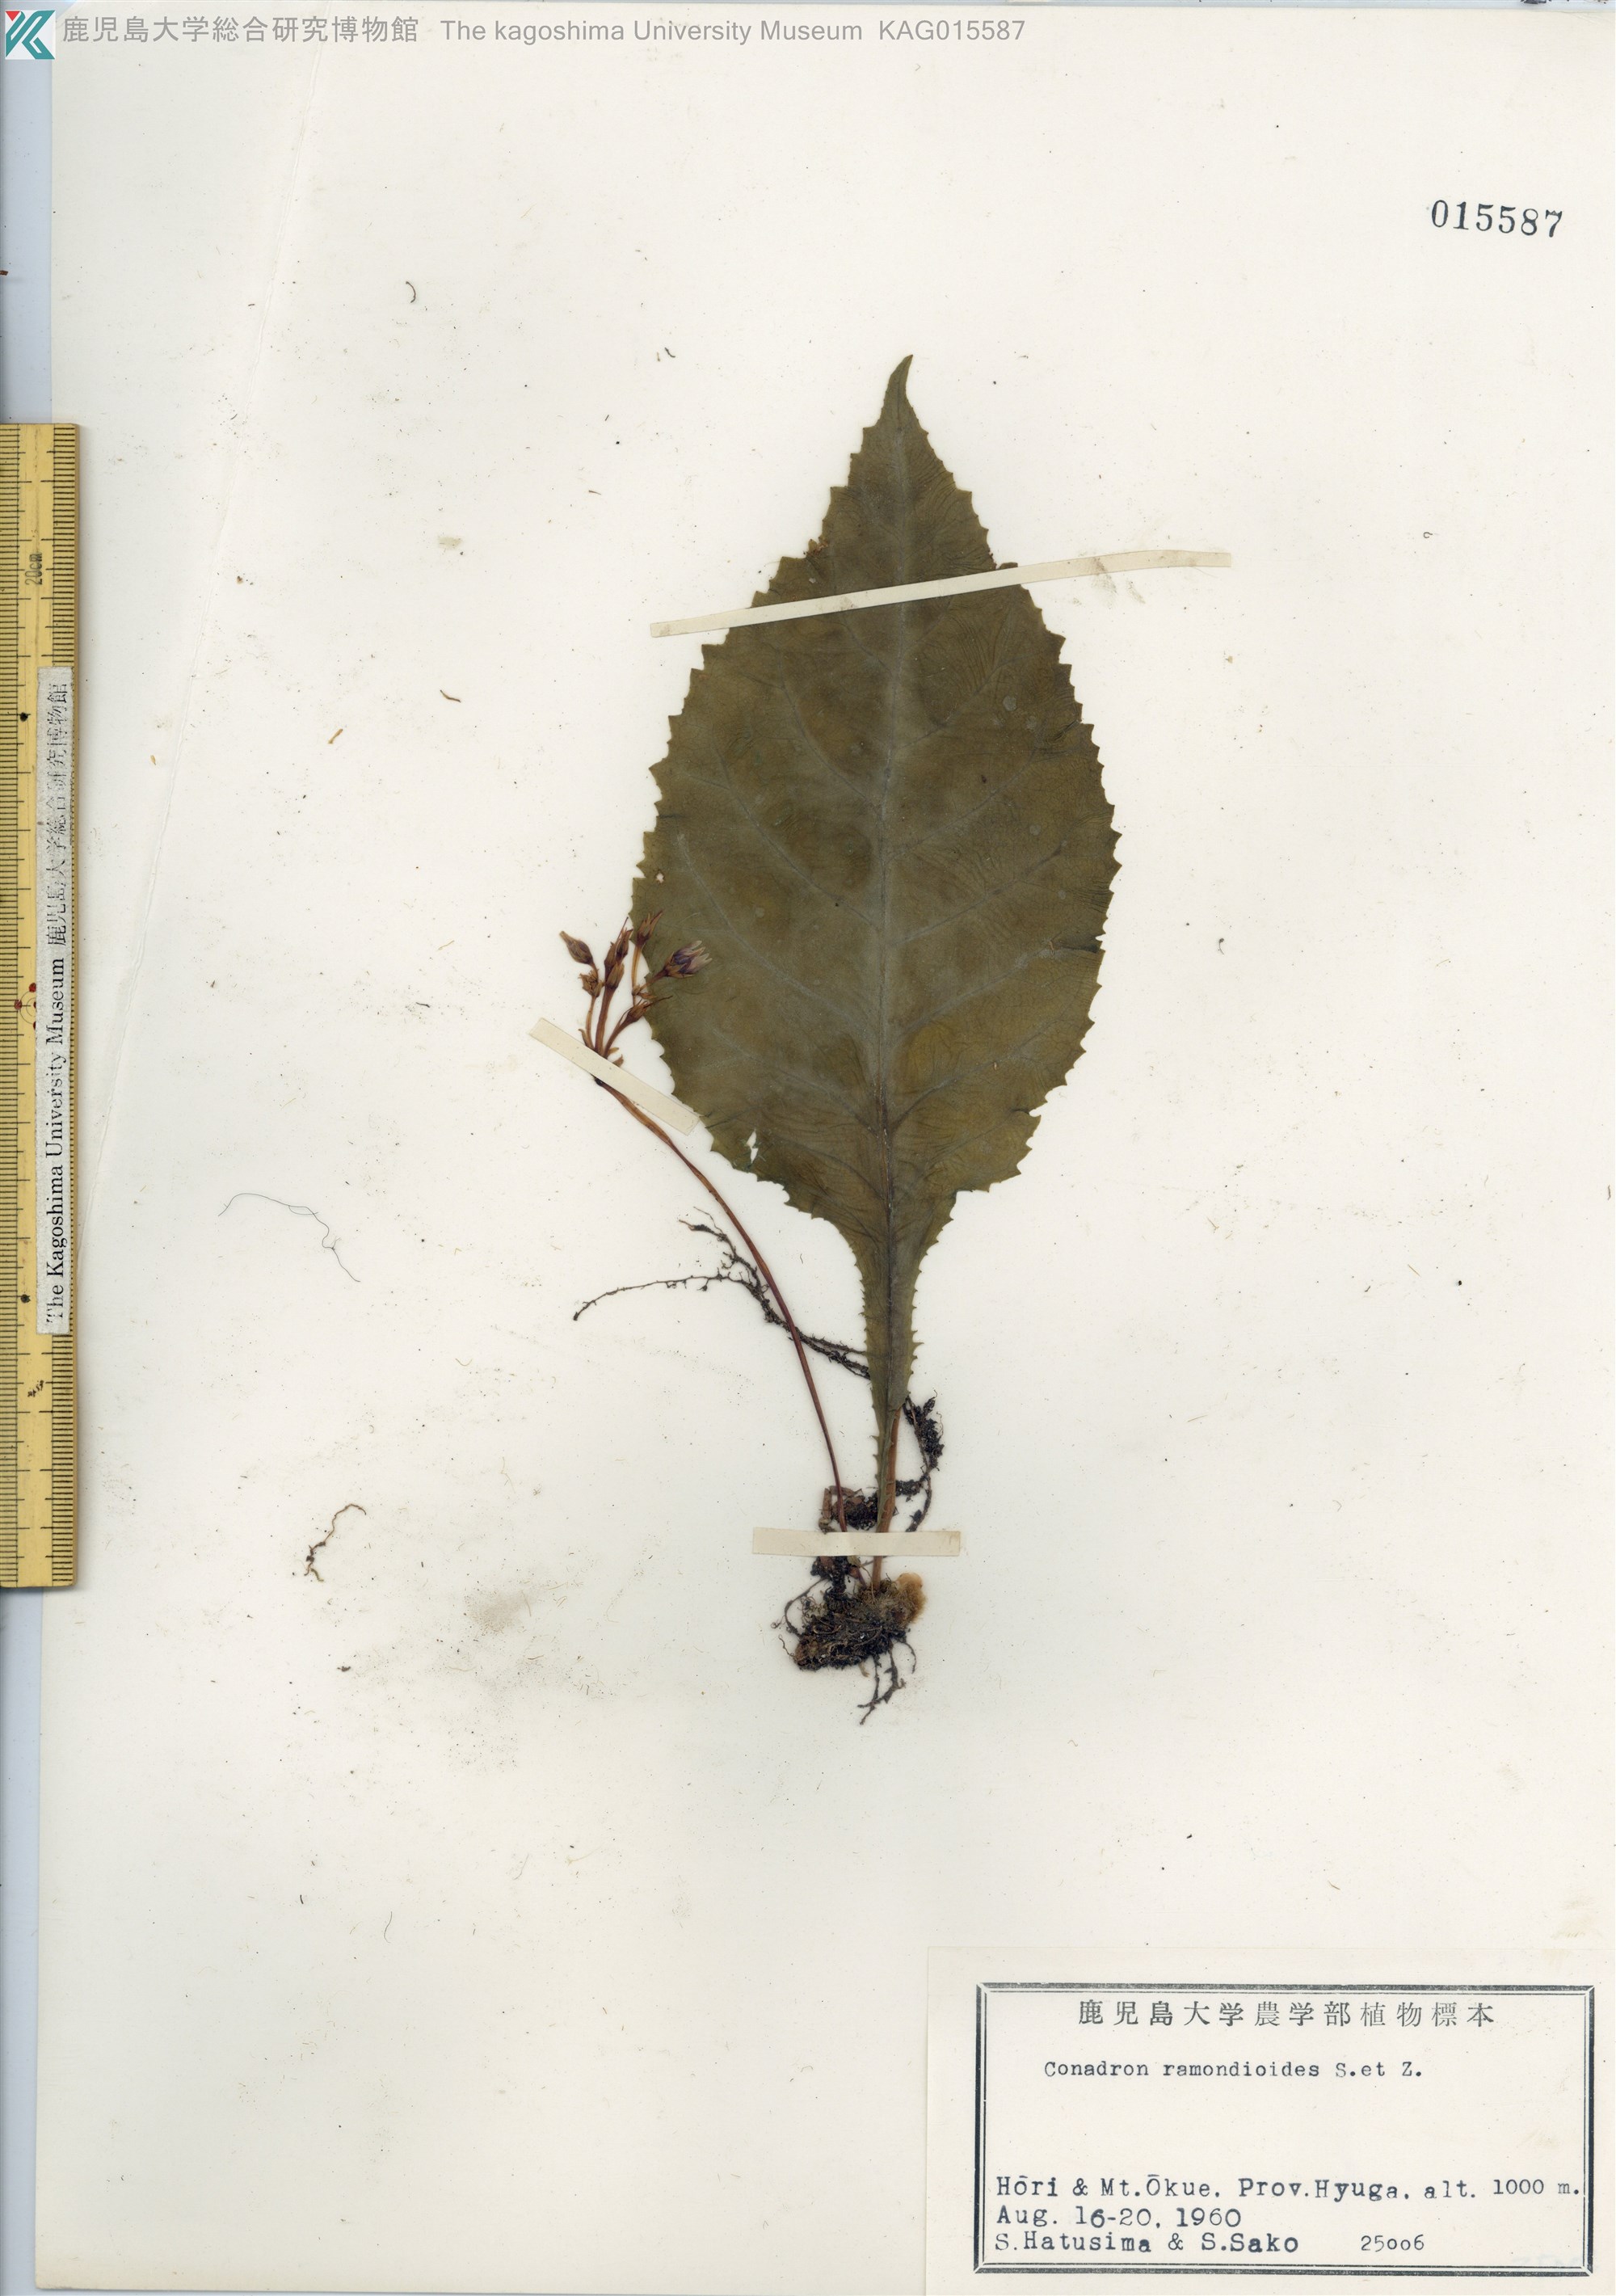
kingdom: Plantae
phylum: Tracheophyta
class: Magnoliopsida
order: Lamiales
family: Gesneriaceae
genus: Conandron
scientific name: Conandron ramondioides
